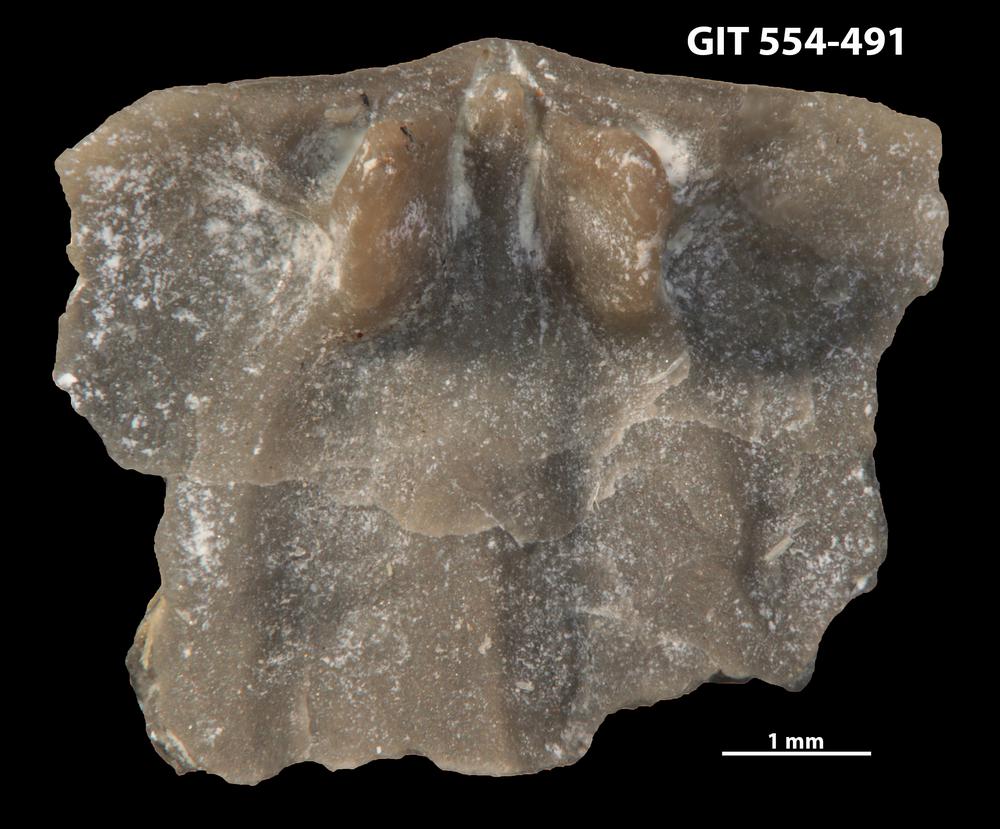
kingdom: Animalia
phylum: Brachiopoda
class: Rhynchonellata
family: Dalmanellidae
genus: Isorthis
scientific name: Isorthis parvulus
